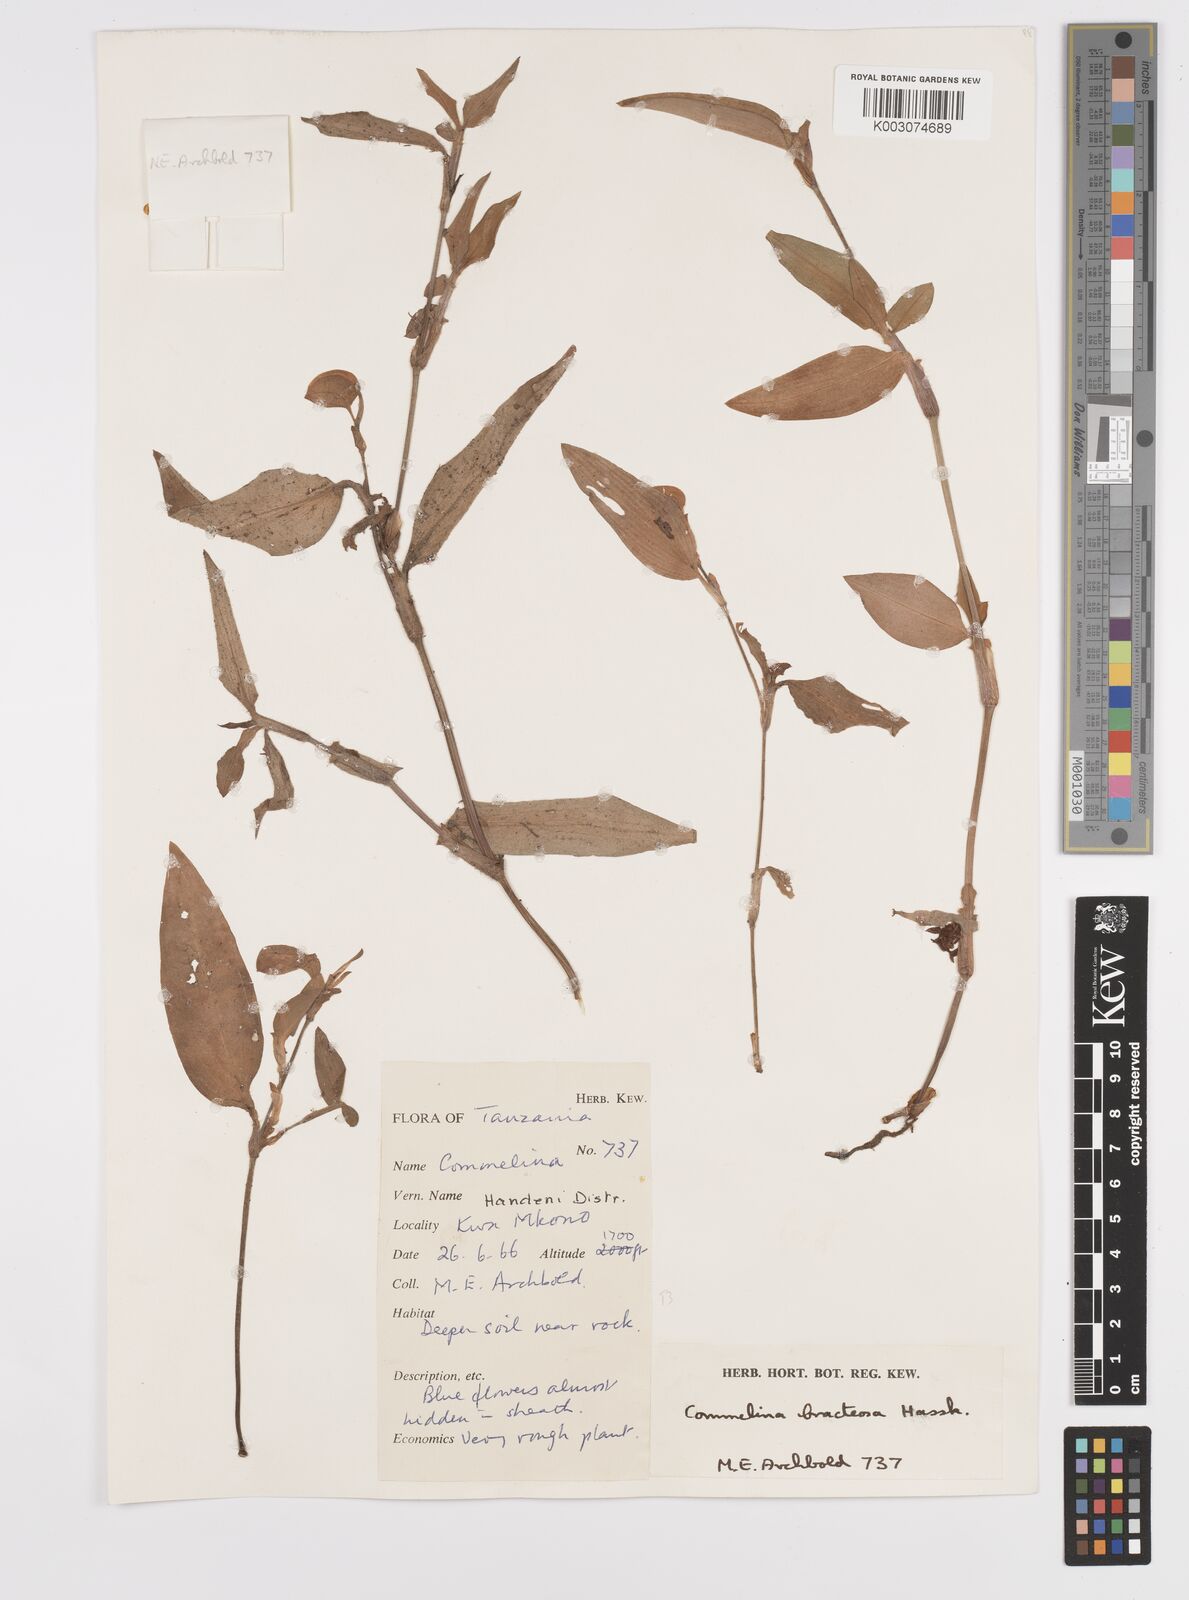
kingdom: Plantae
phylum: Tracheophyta
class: Liliopsida
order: Commelinales
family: Commelinaceae
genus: Commelina
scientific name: Commelina bracteosa
